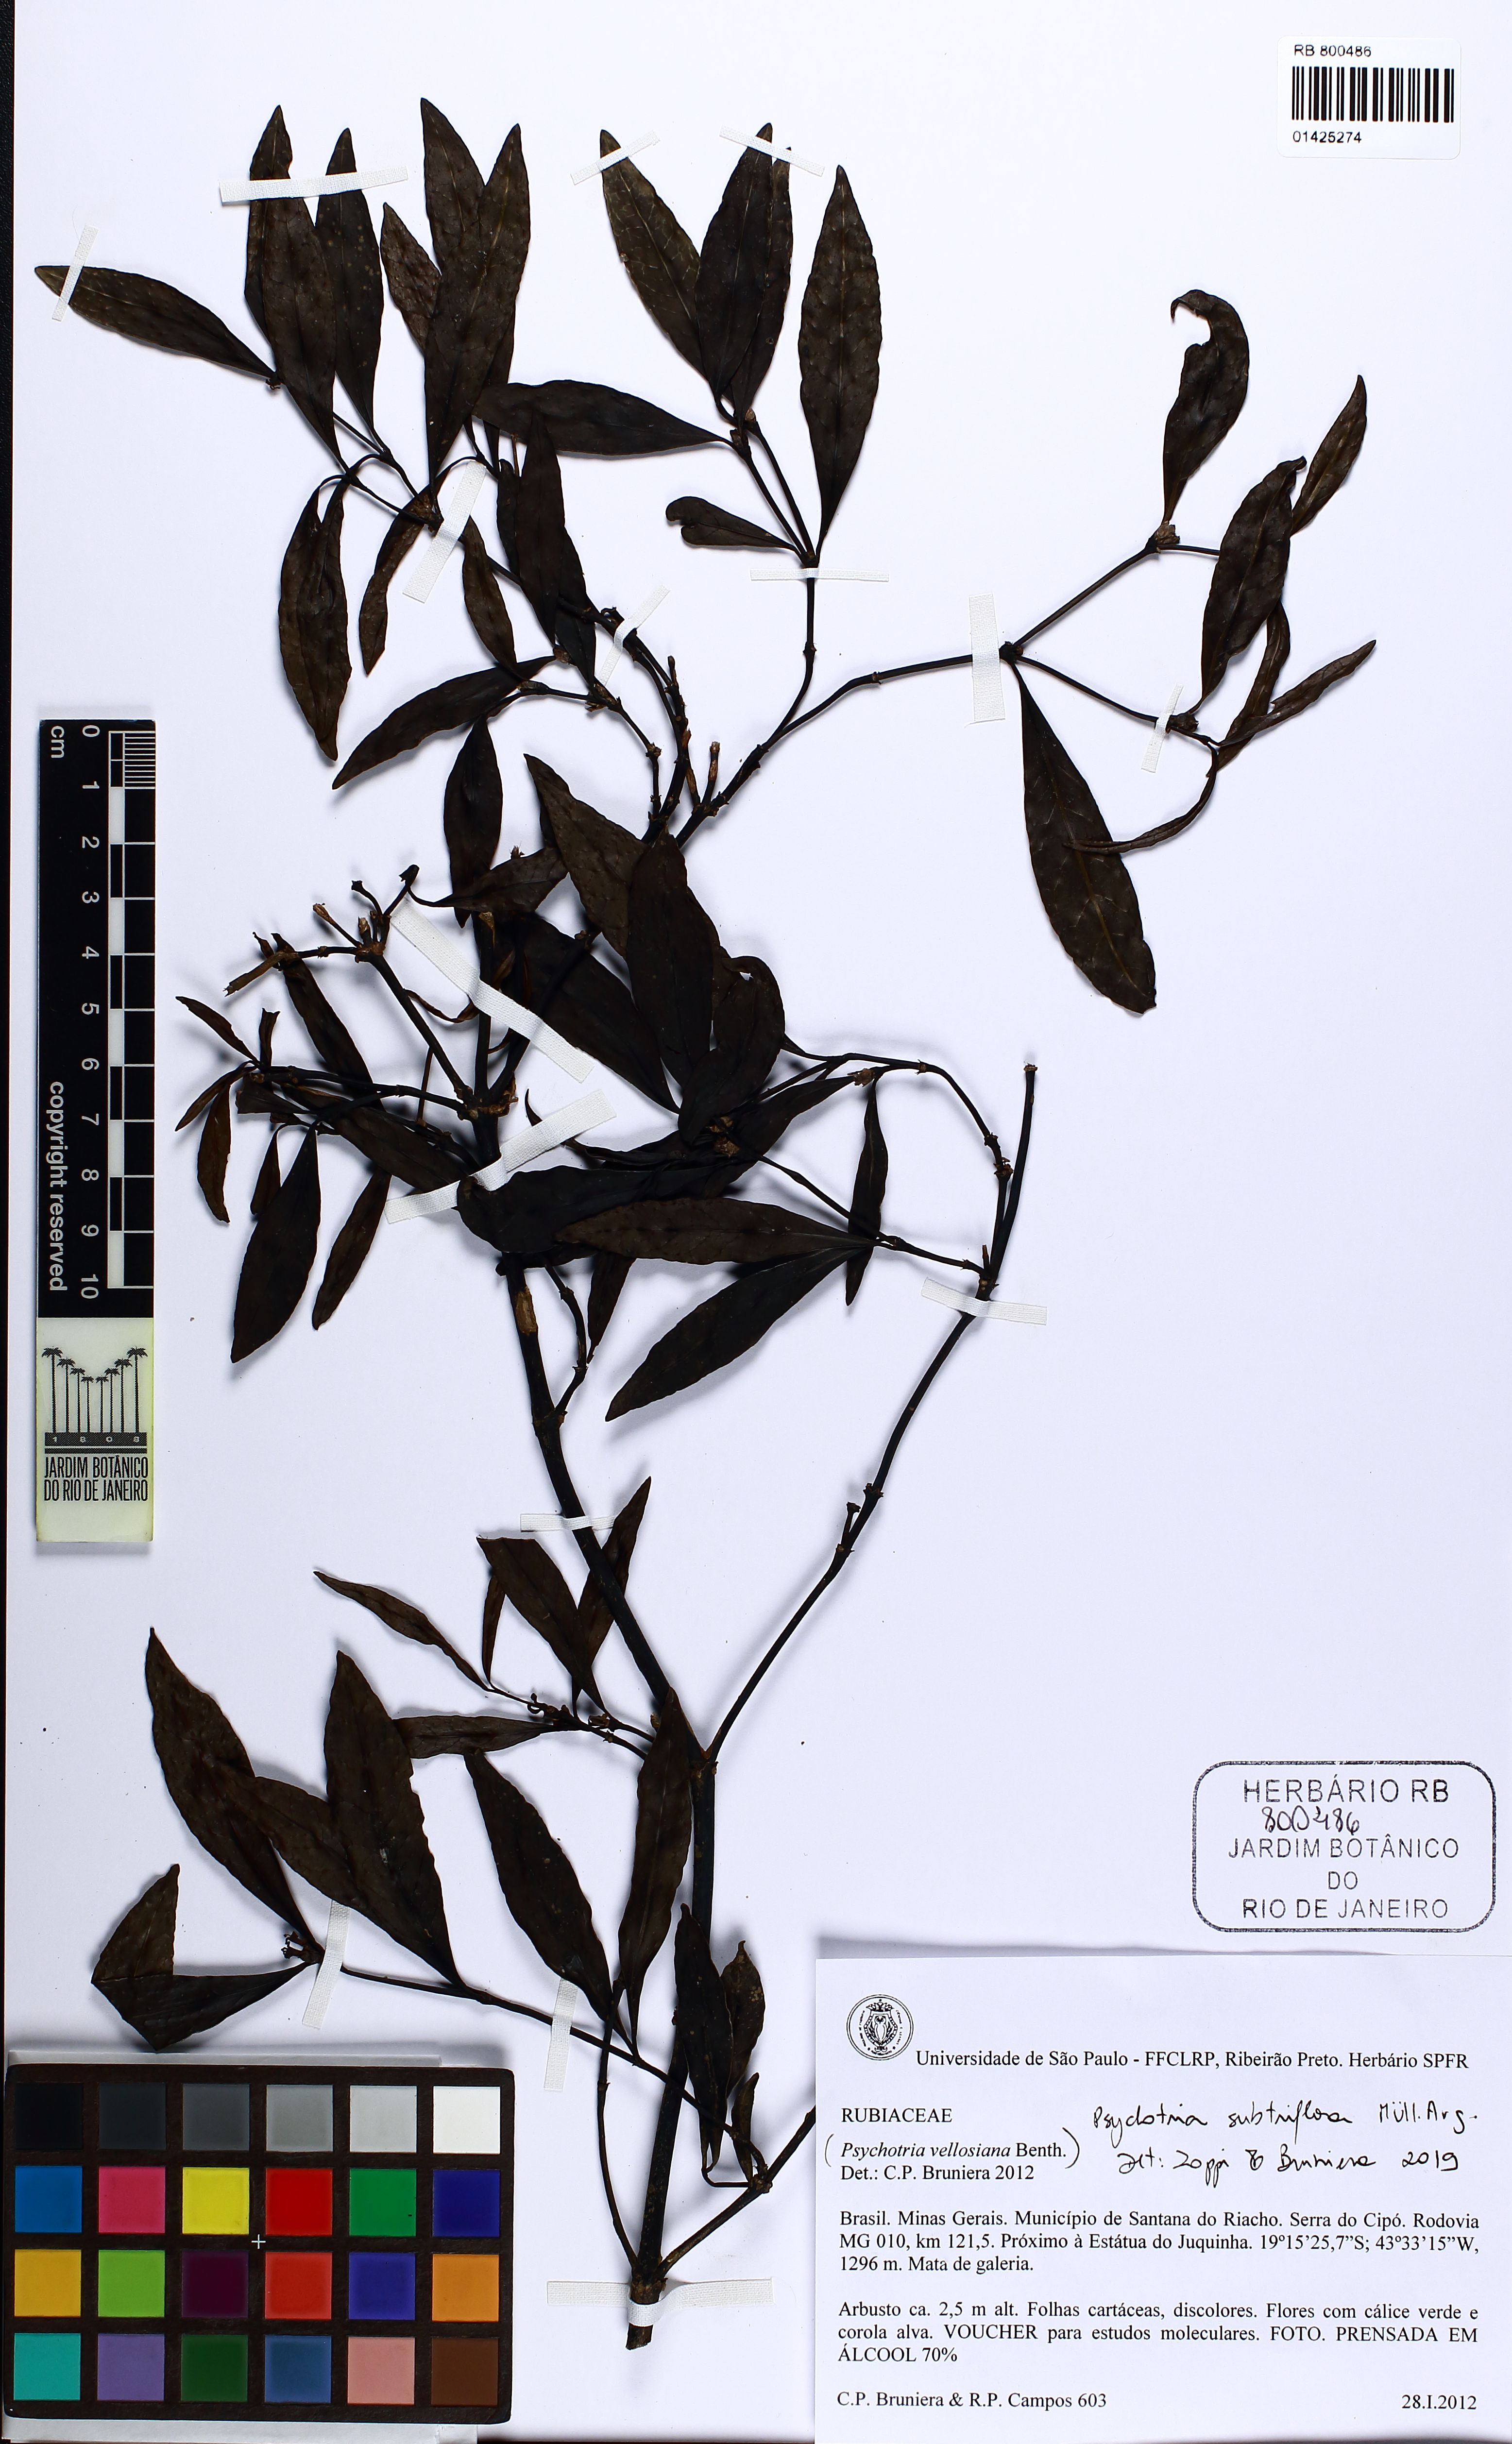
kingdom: Plantae
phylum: Tracheophyta
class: Magnoliopsida
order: Gentianales
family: Rubiaceae
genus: Psychotria
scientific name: Psychotria subtriflora
